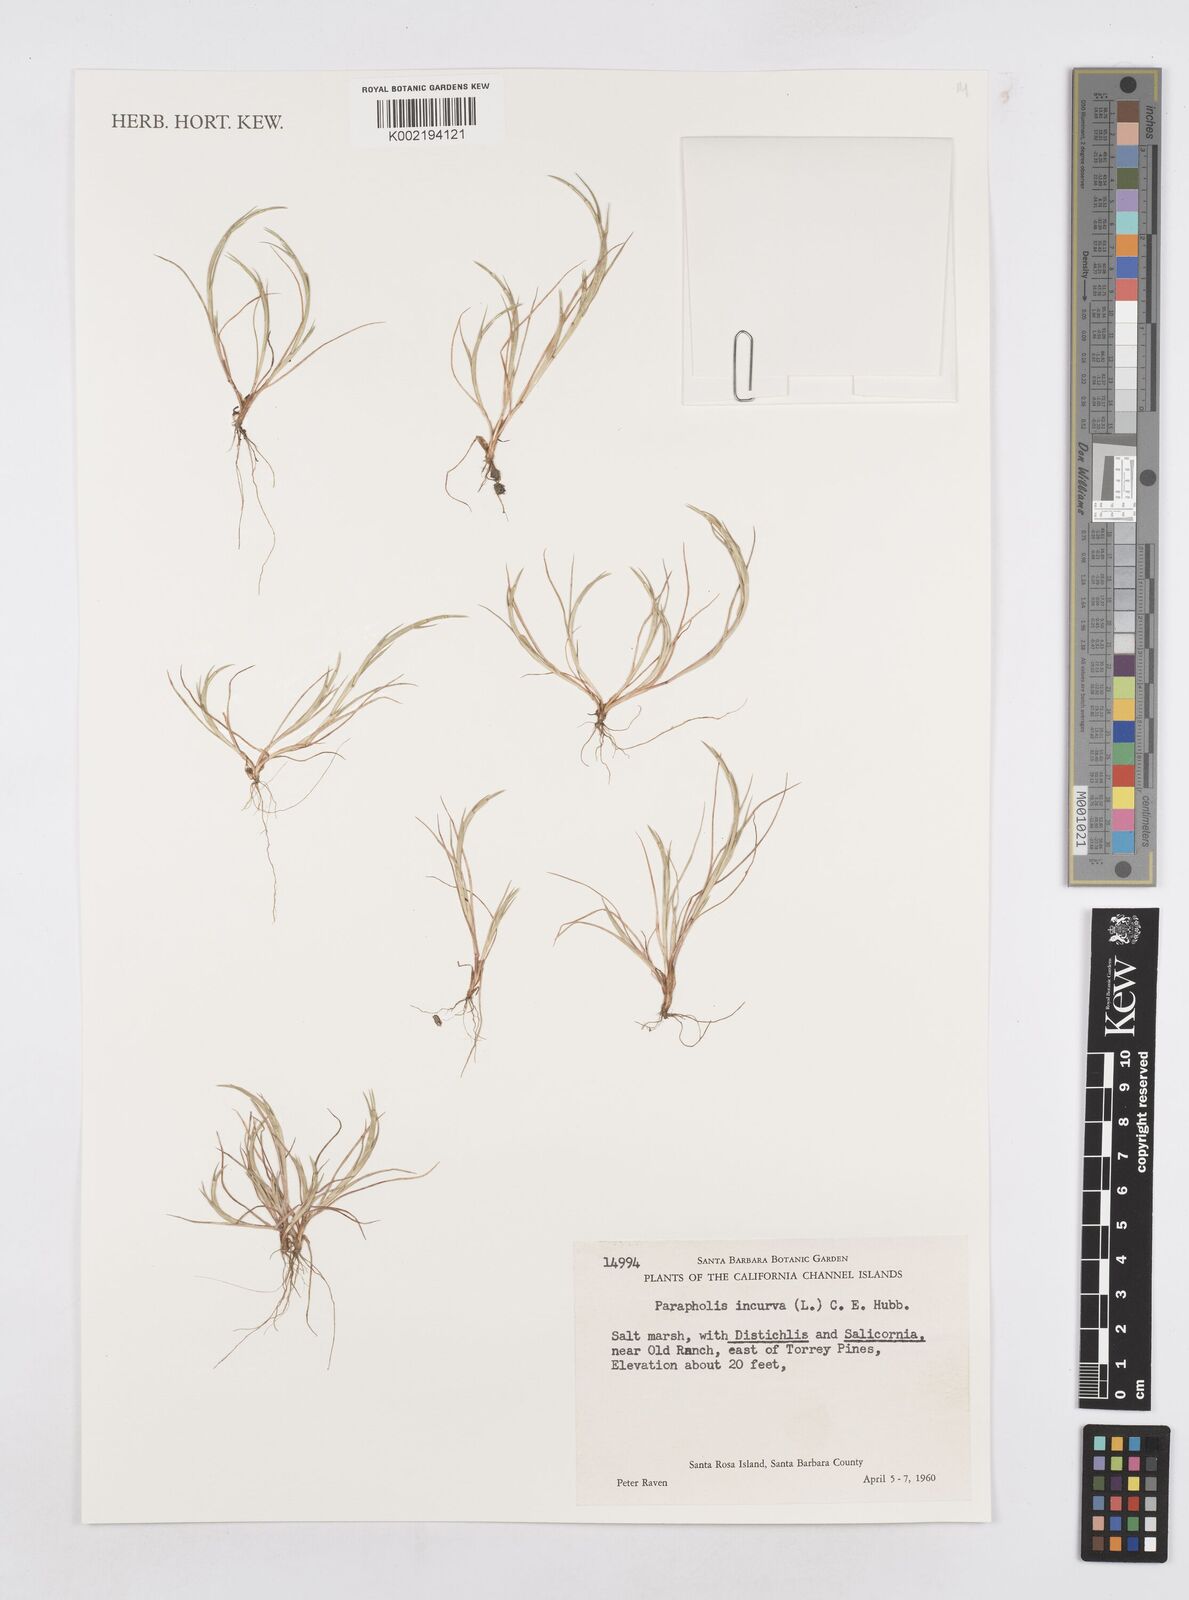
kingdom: Plantae
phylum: Tracheophyta
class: Liliopsida
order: Poales
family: Poaceae
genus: Parapholis
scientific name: Parapholis incurva
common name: Curved sicklegrass
